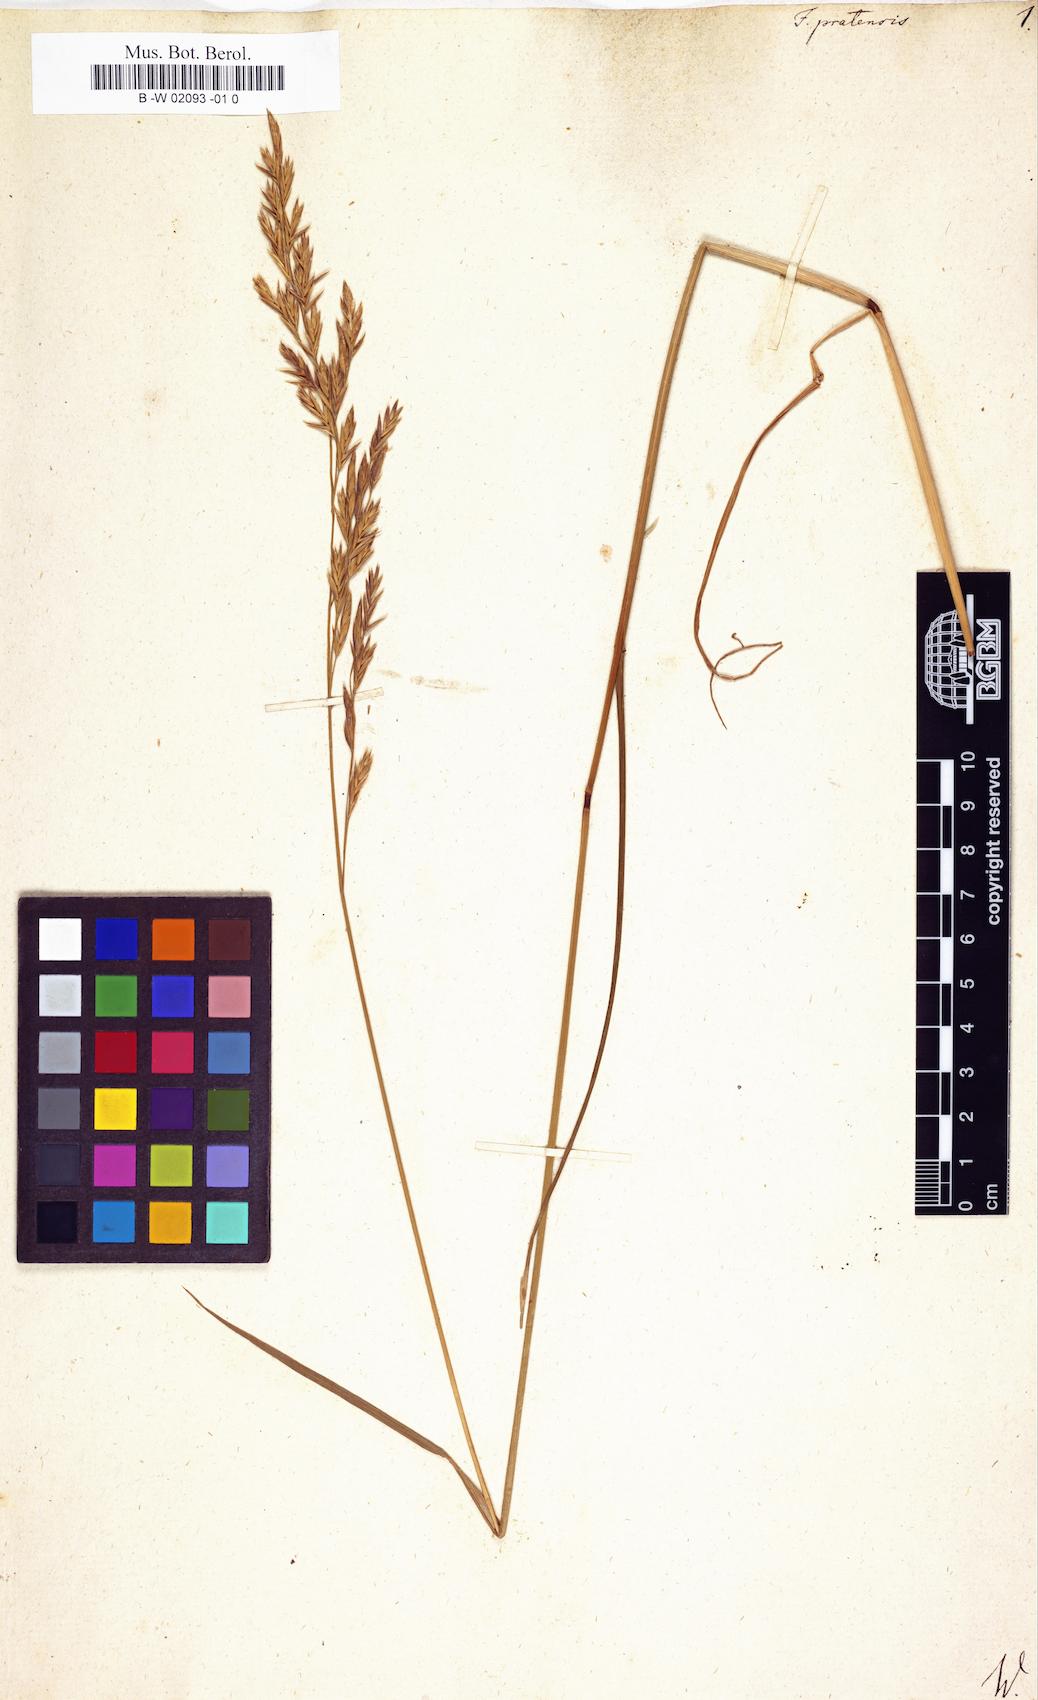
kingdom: Plantae
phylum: Tracheophyta
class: Liliopsida
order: Poales
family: Poaceae
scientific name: Poaceae
